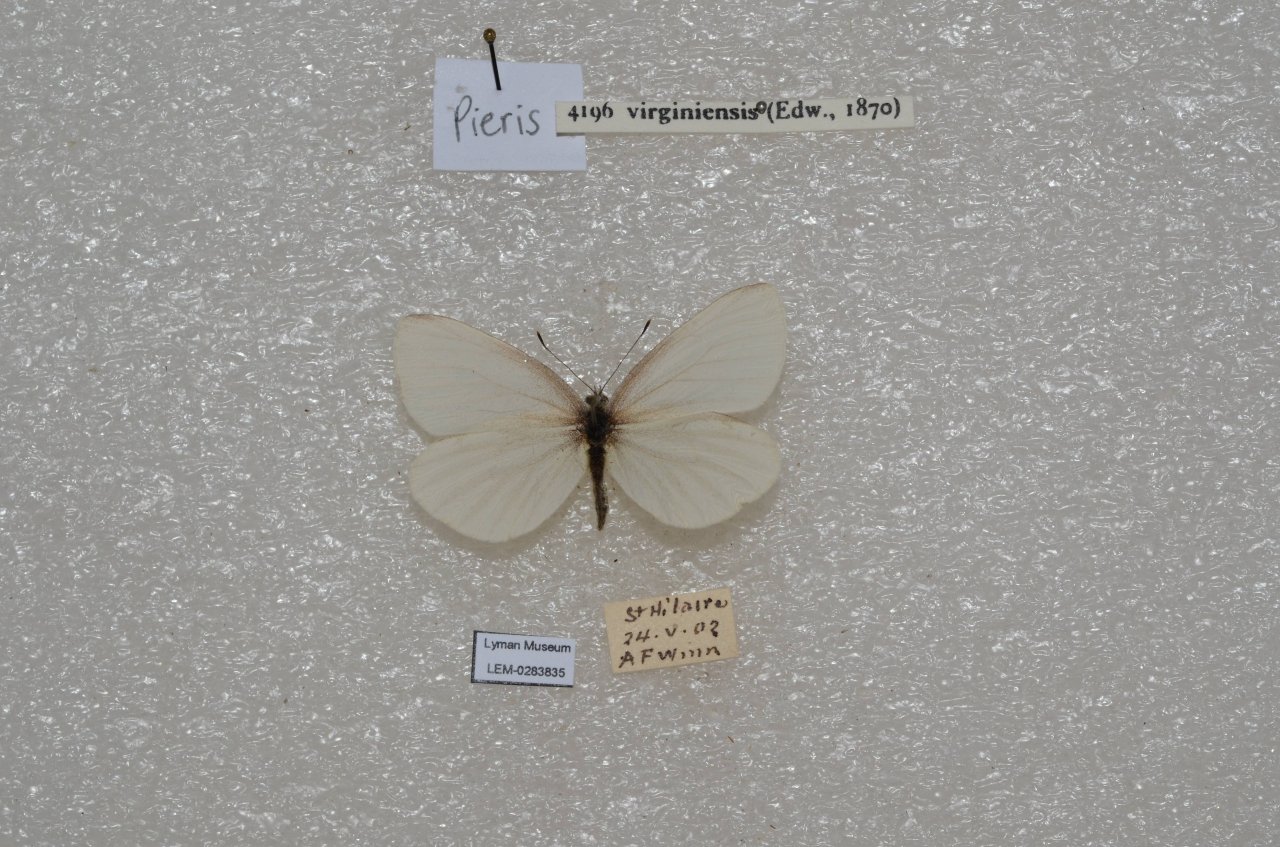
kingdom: Animalia
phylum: Arthropoda
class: Insecta
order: Lepidoptera
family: Pieridae
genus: Pieris
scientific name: Pieris virginiensis
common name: West Virginia White
